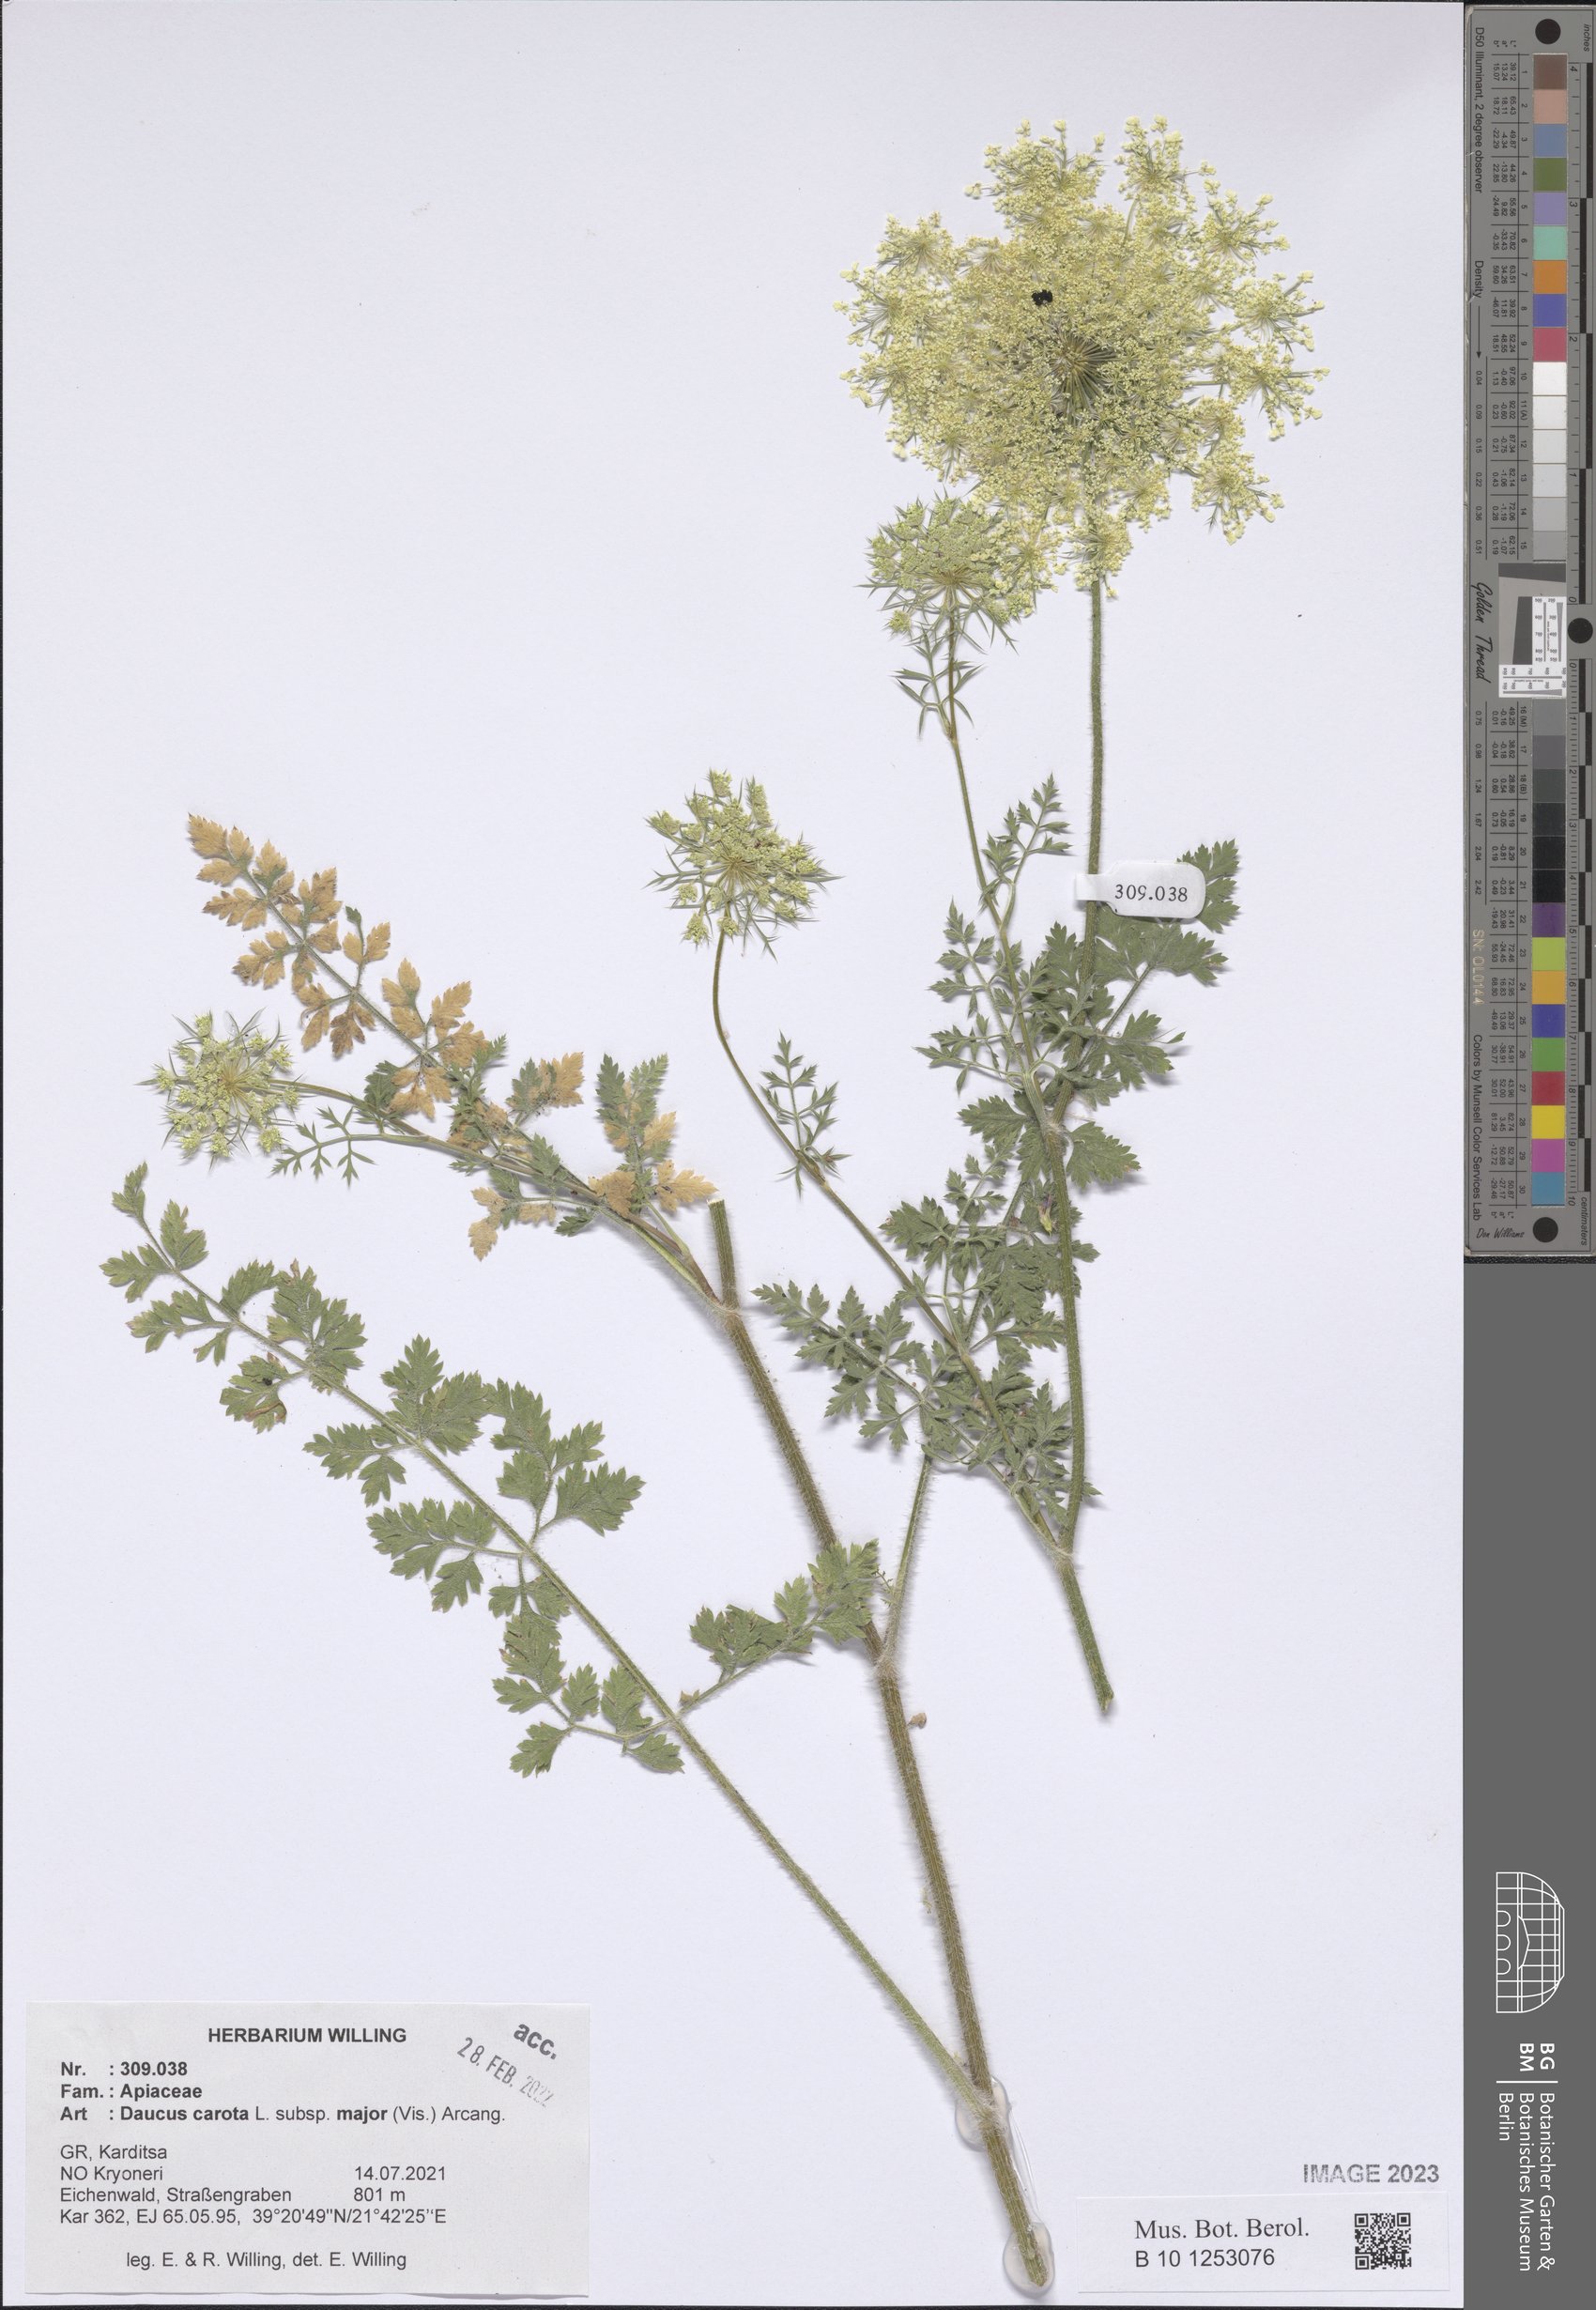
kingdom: Plantae
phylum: Tracheophyta
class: Magnoliopsida
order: Apiales
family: Apiaceae
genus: Daucus
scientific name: Daucus carota
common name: Wild carrot
